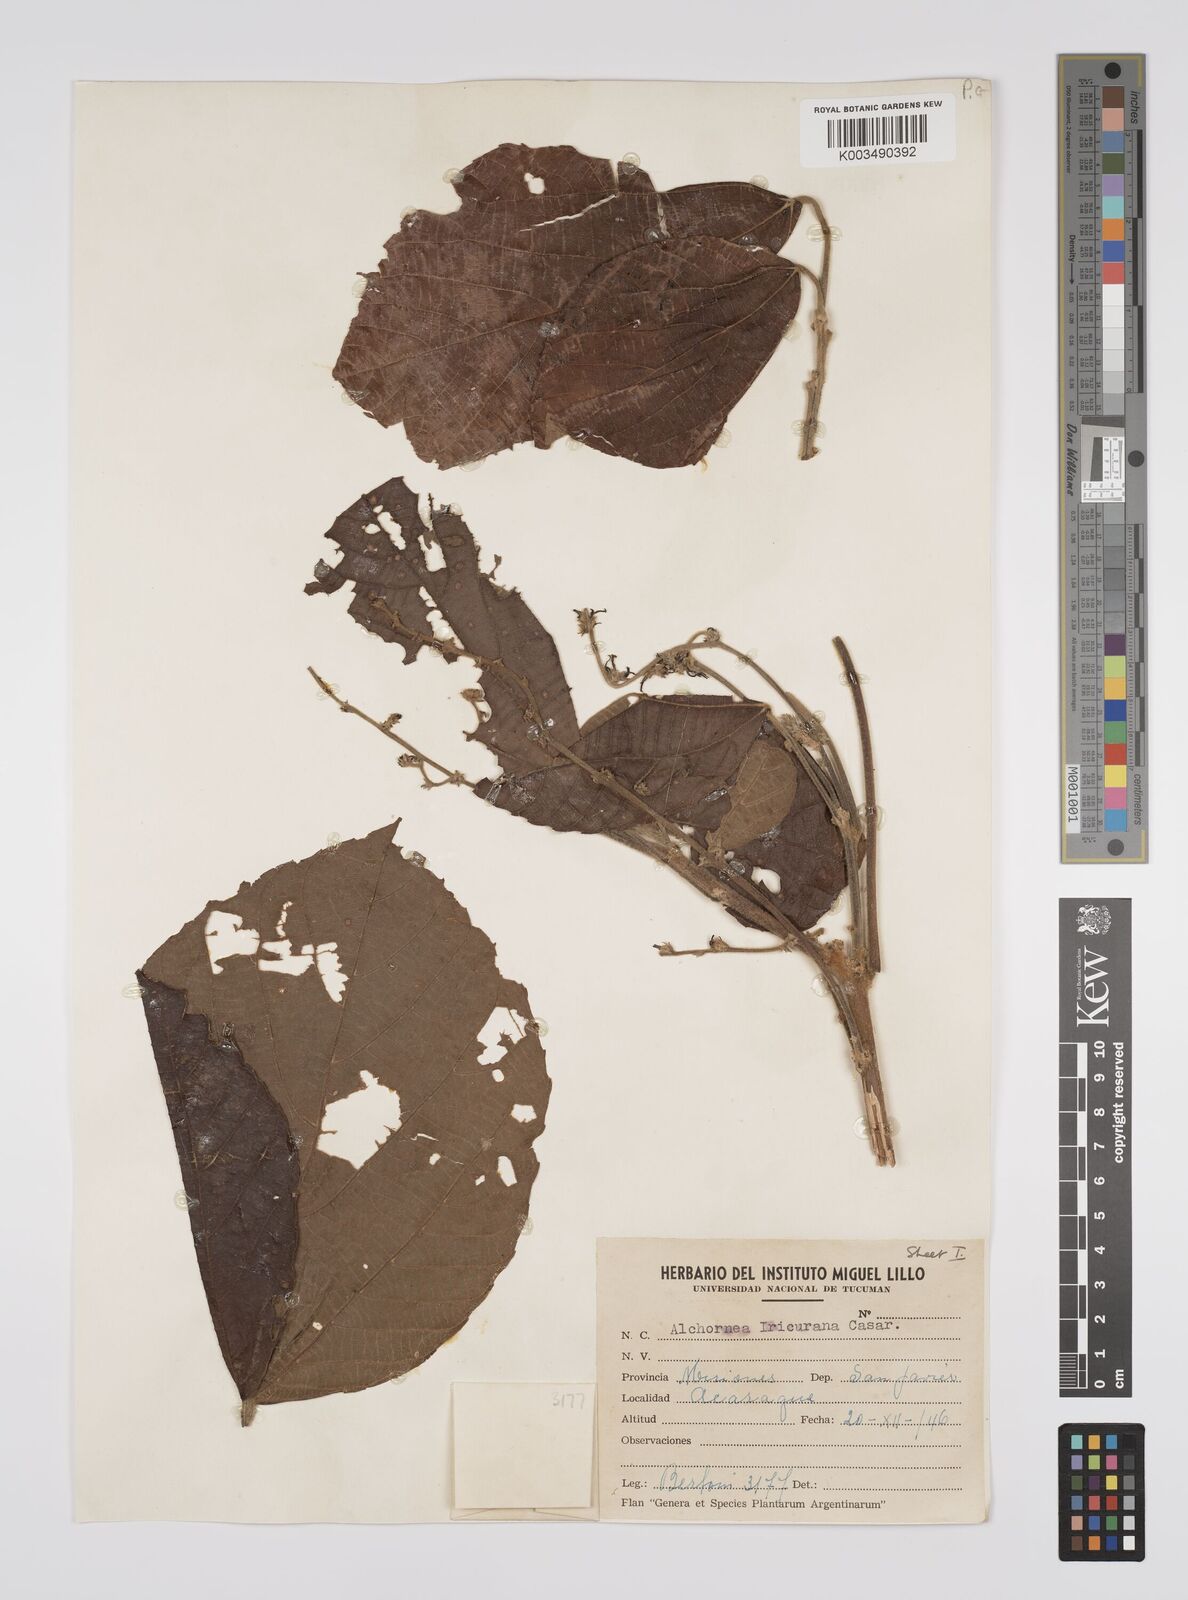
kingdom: Plantae
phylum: Tracheophyta
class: Magnoliopsida
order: Malpighiales
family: Euphorbiaceae
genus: Alchornea
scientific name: Alchornea glandulosa
